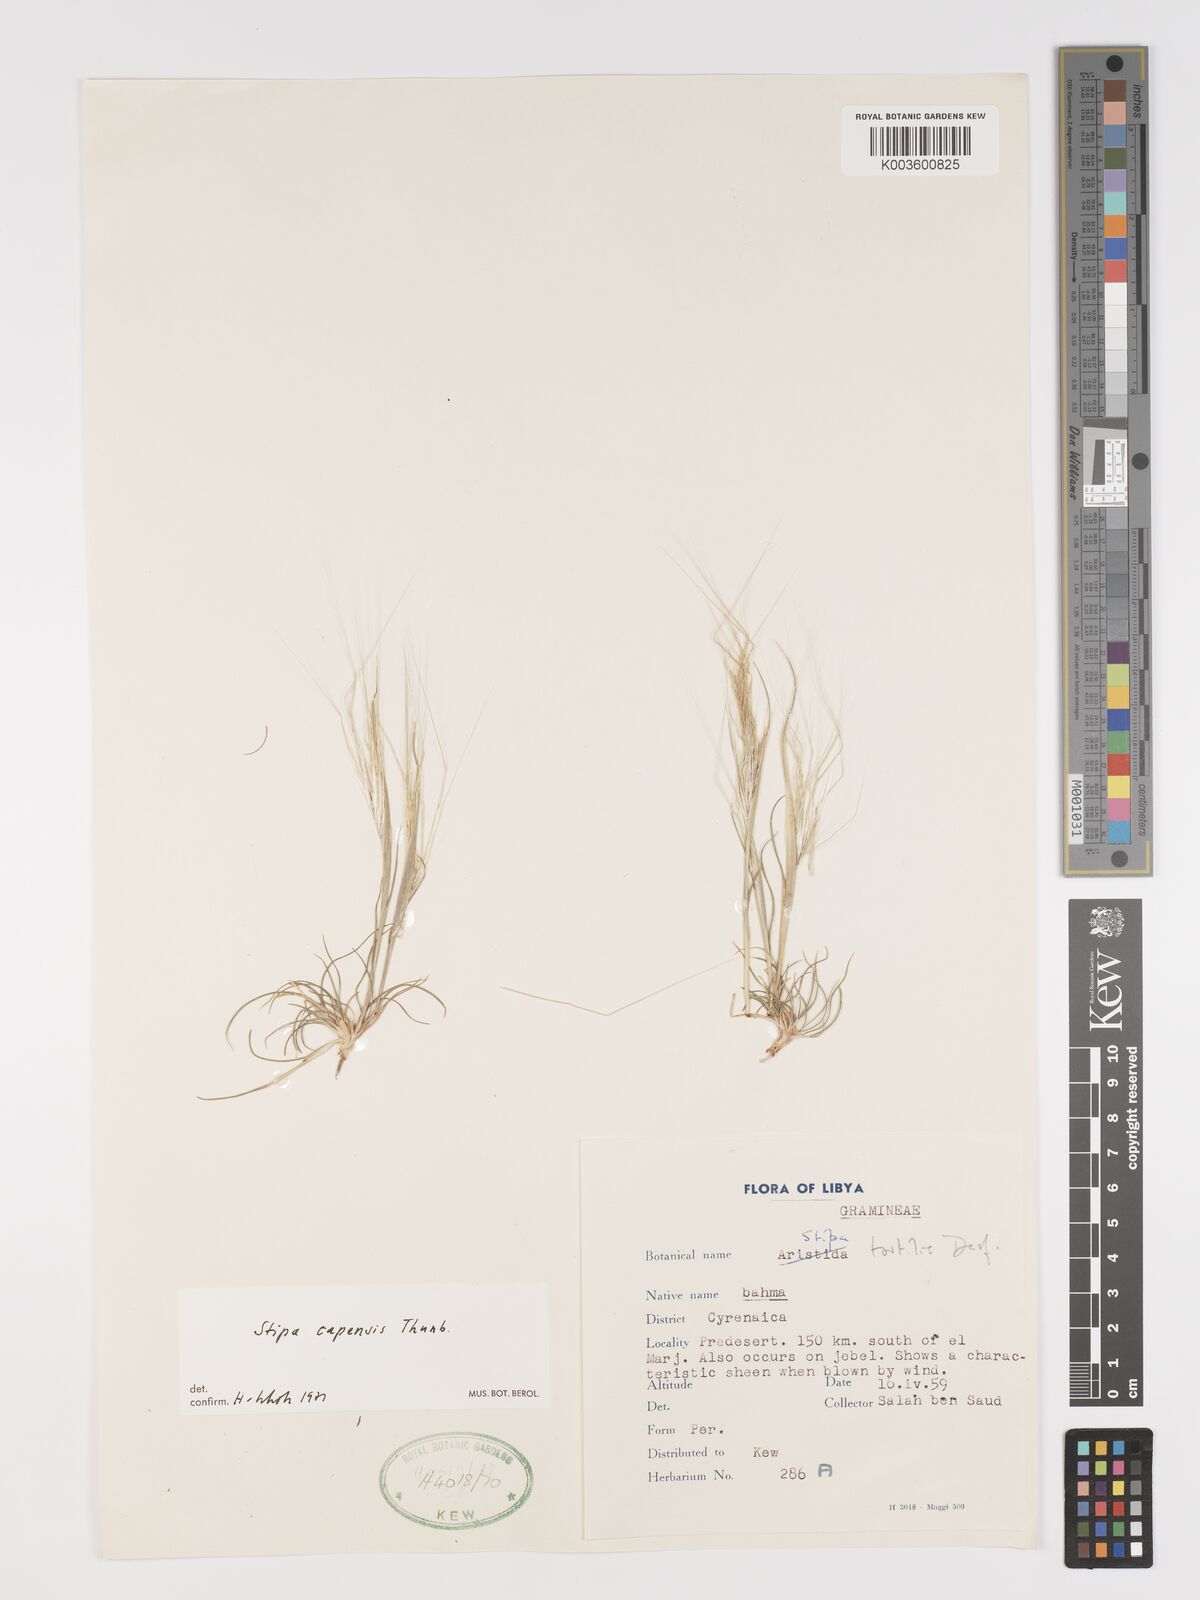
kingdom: Plantae
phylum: Tracheophyta
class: Liliopsida
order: Poales
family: Poaceae
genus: Stipellula
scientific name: Stipellula capensis
